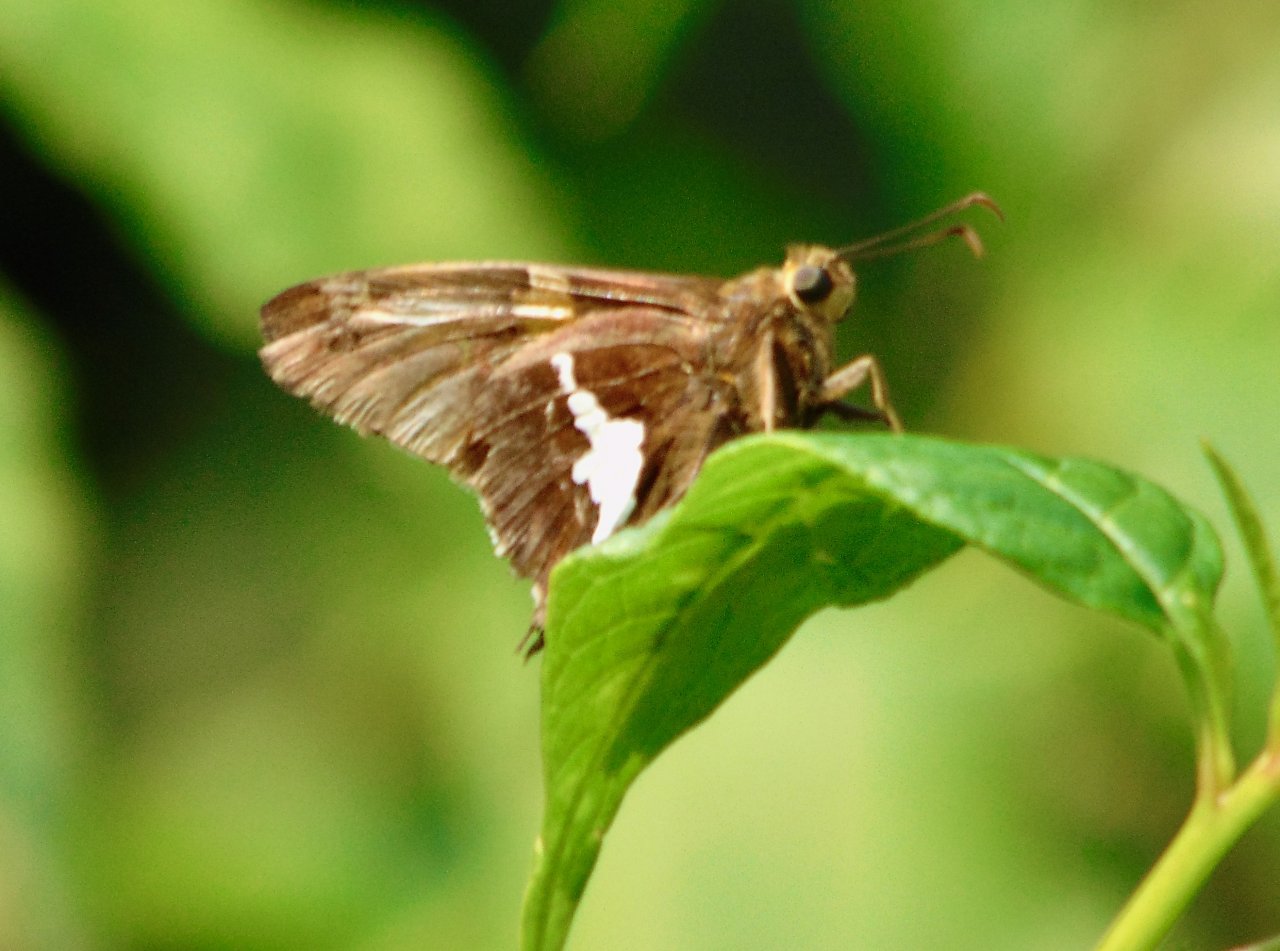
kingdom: Animalia
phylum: Arthropoda
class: Insecta
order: Lepidoptera
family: Hesperiidae
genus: Epargyreus
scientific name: Epargyreus clarus
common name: Silver-spotted Skipper
